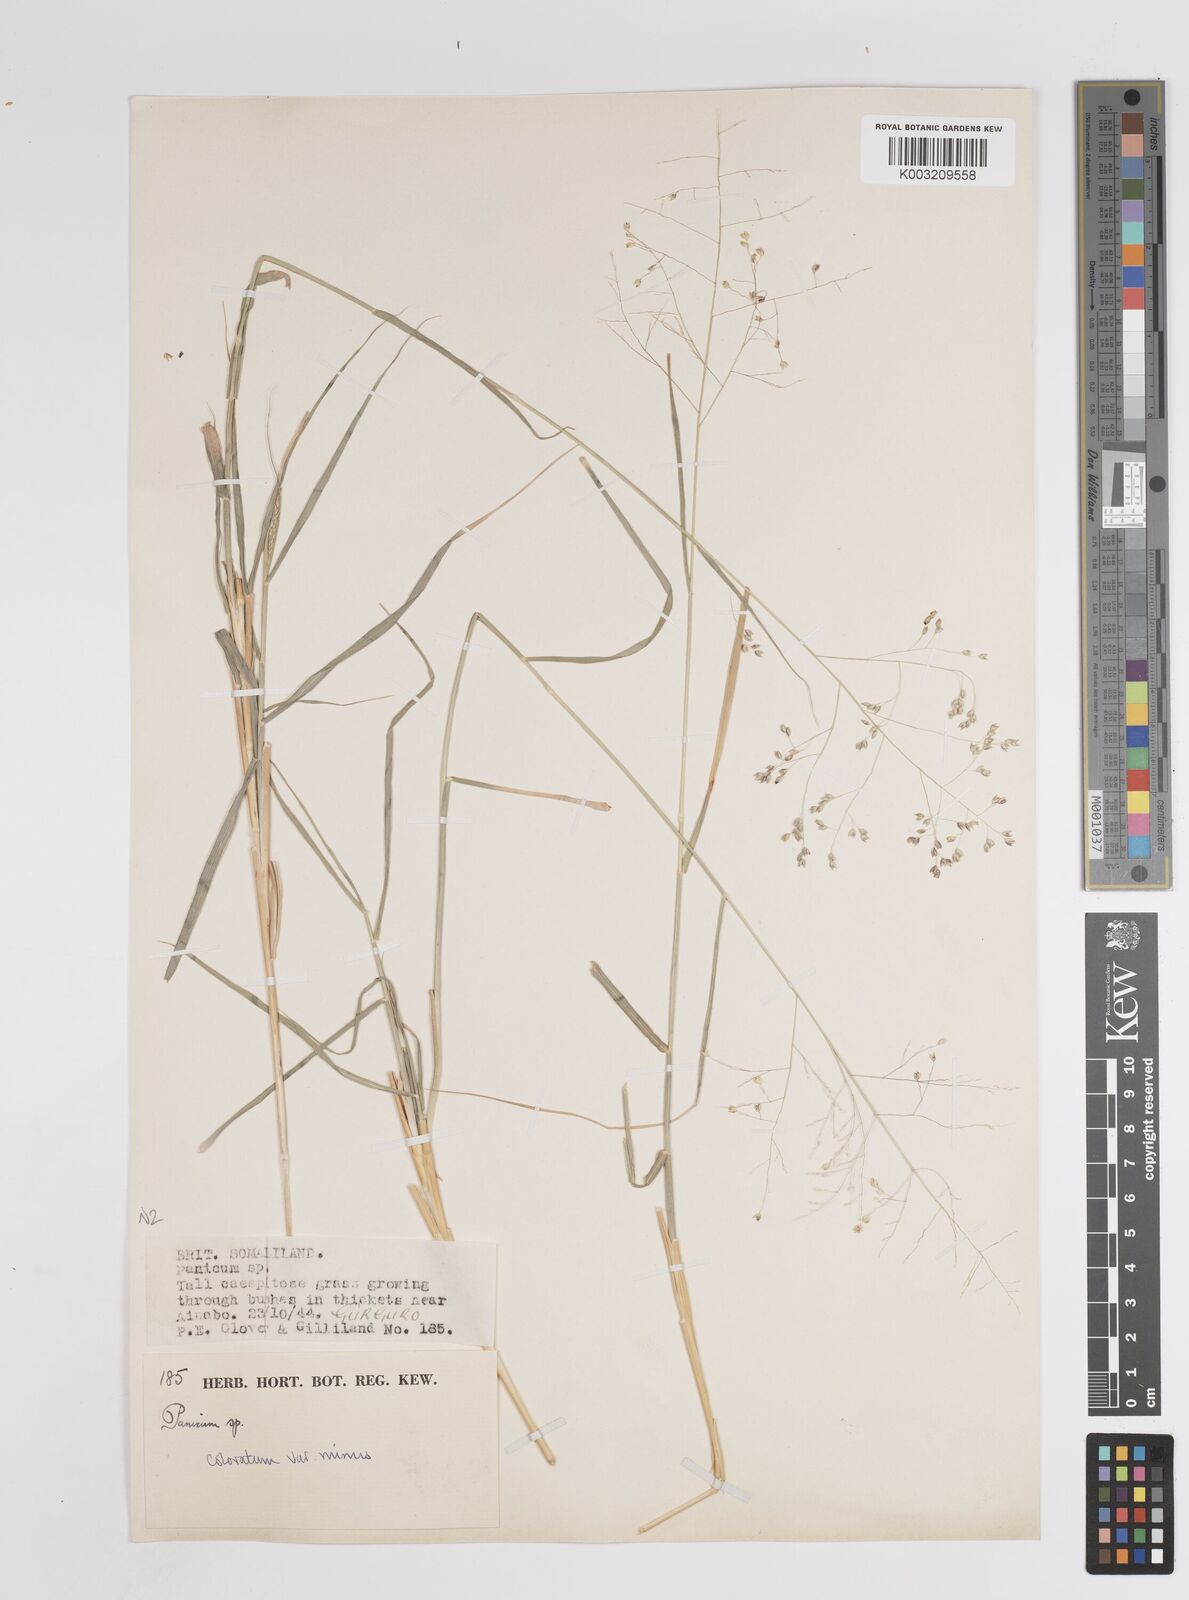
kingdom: Plantae
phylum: Tracheophyta
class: Liliopsida
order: Poales
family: Poaceae
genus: Panicum
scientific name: Panicum coloratum
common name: Kleingrass
